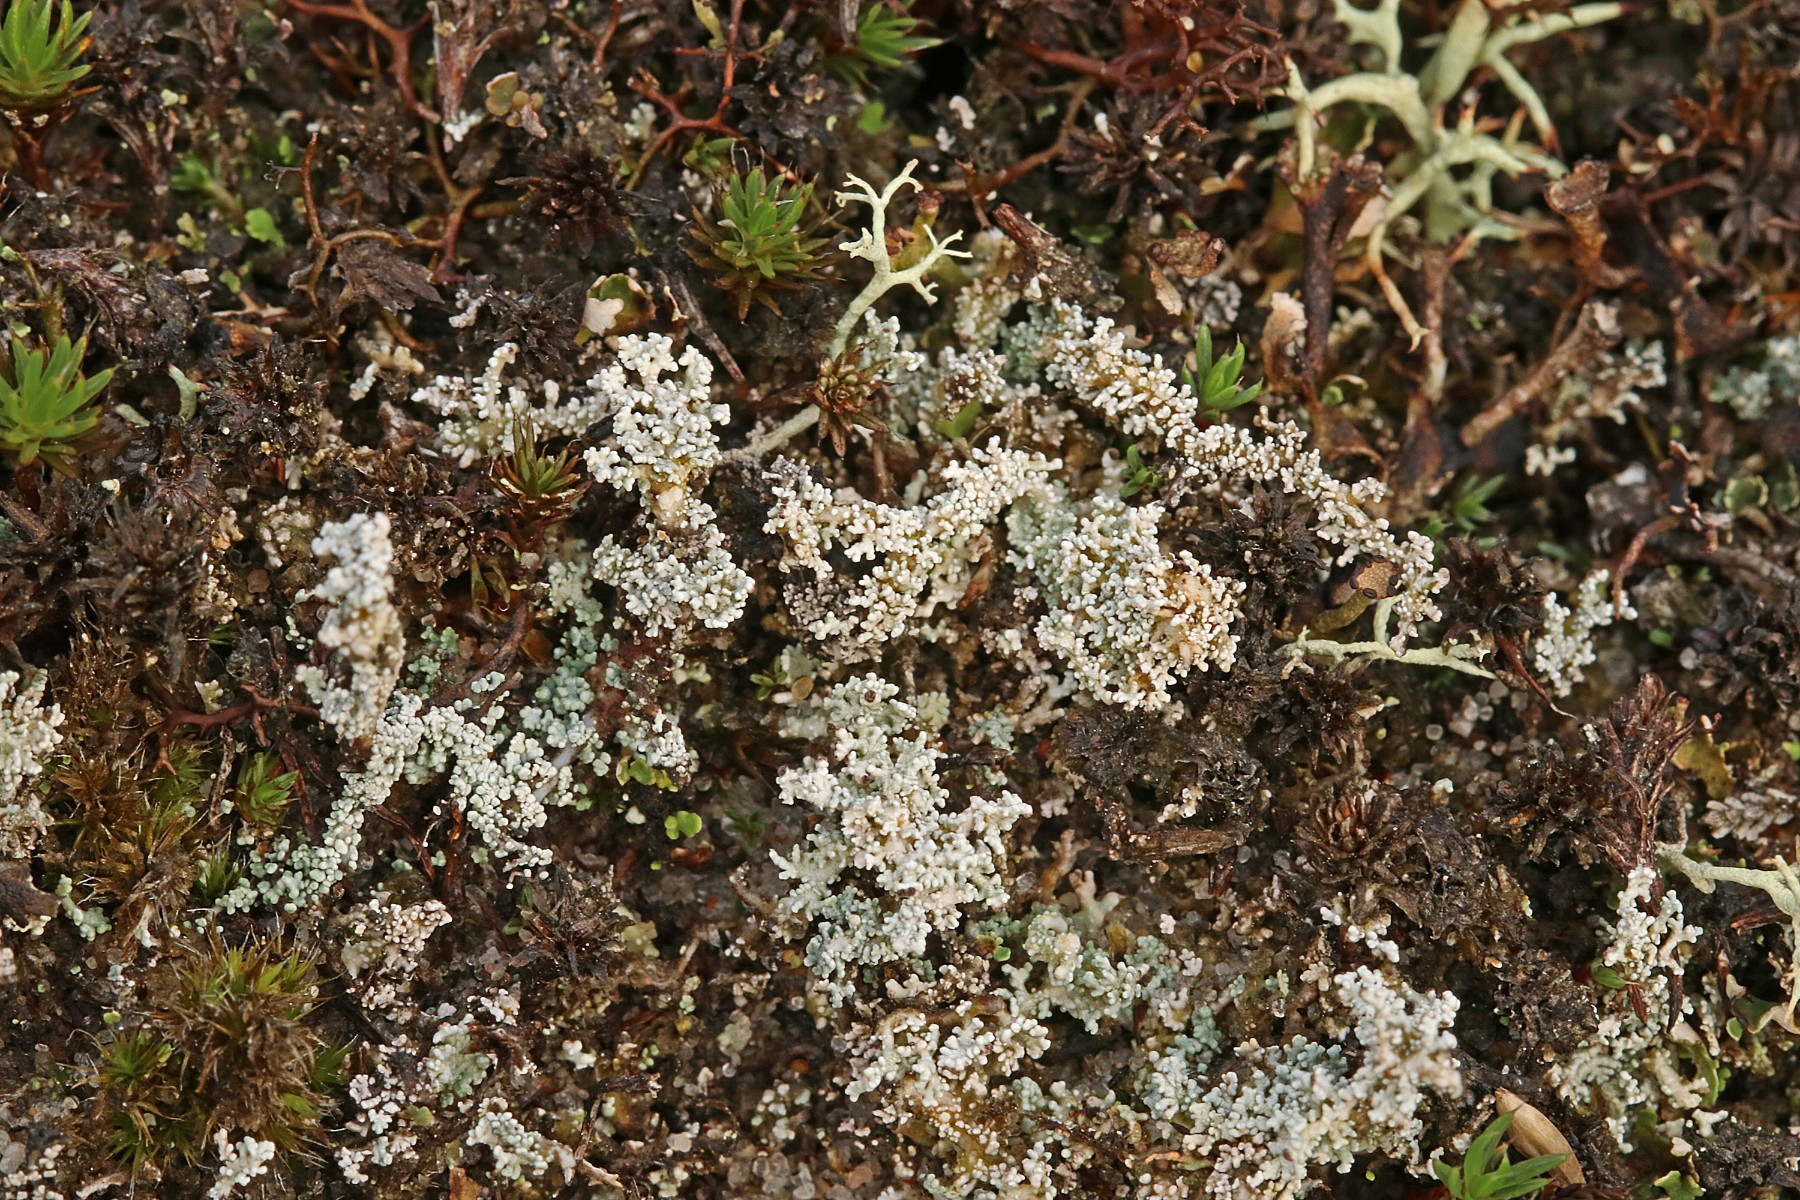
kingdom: Fungi
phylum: Ascomycota
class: Lecanoromycetes
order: Lecanorales
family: Stereocaulaceae
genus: Stereocaulon
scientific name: Stereocaulon saxatile
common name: klit-korallav
